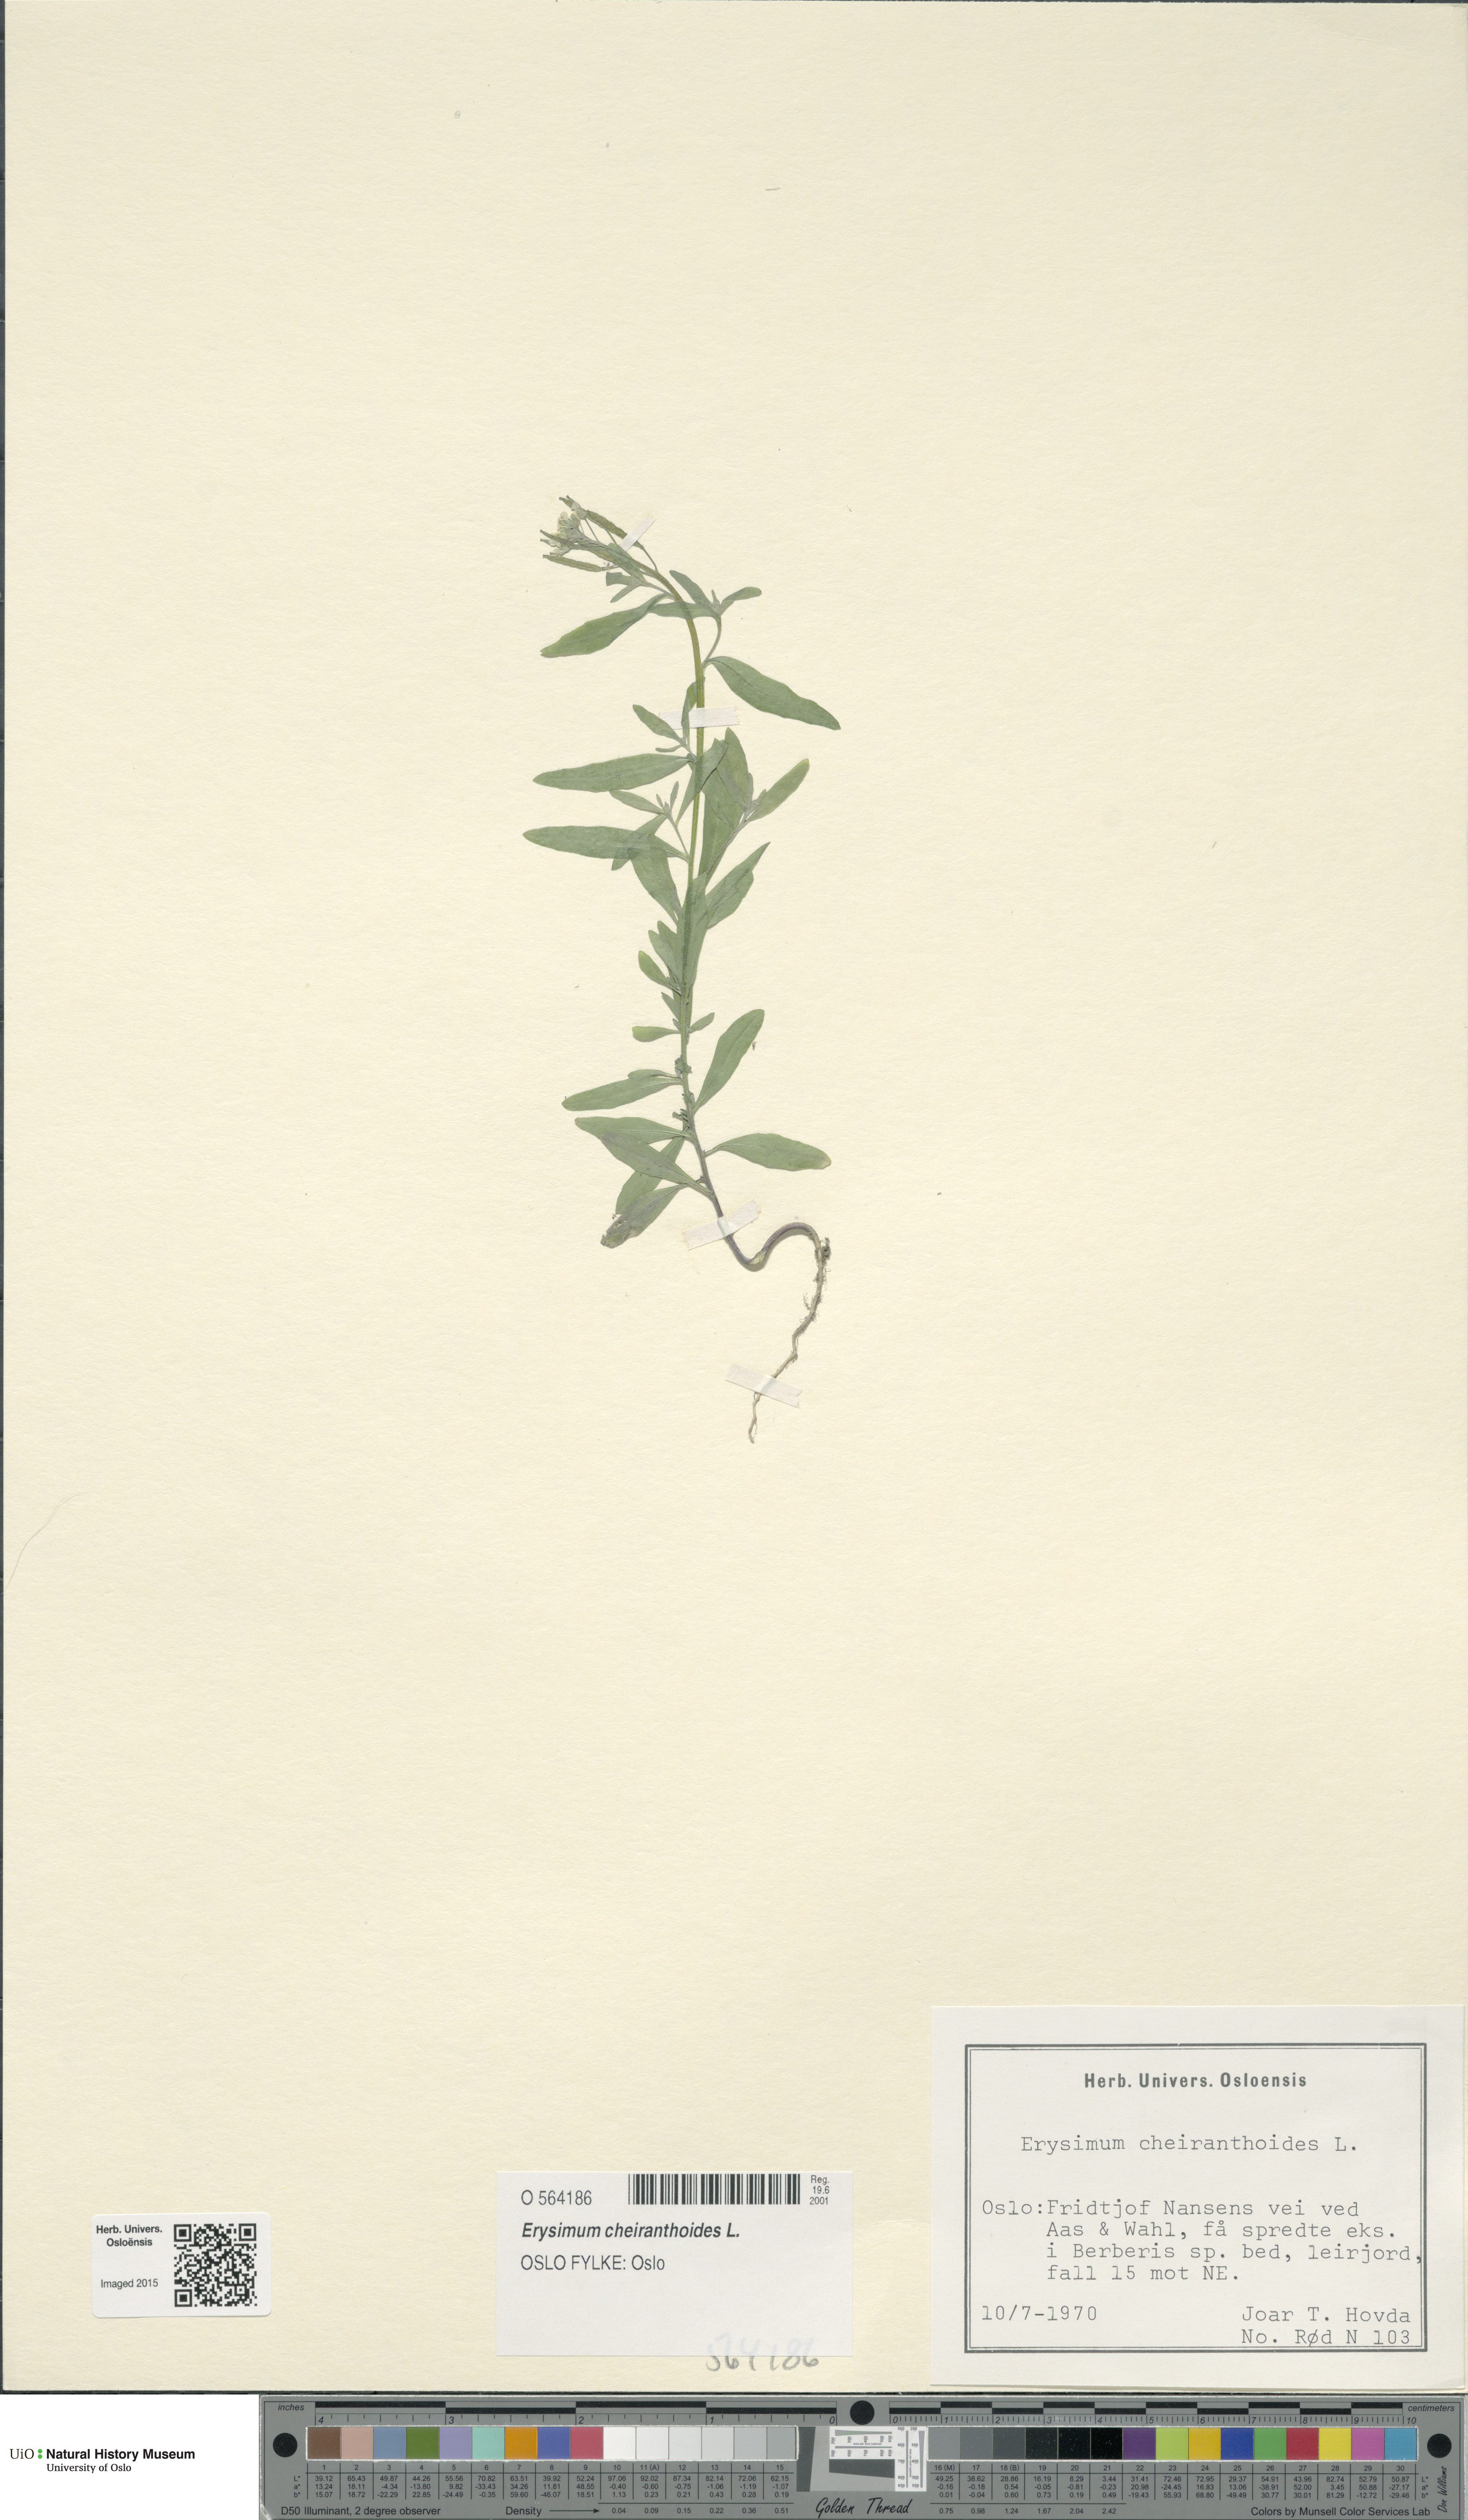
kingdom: Plantae
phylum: Tracheophyta
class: Magnoliopsida
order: Brassicales
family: Brassicaceae
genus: Erysimum
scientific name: Erysimum cheiranthoides
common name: Treacle mustard
